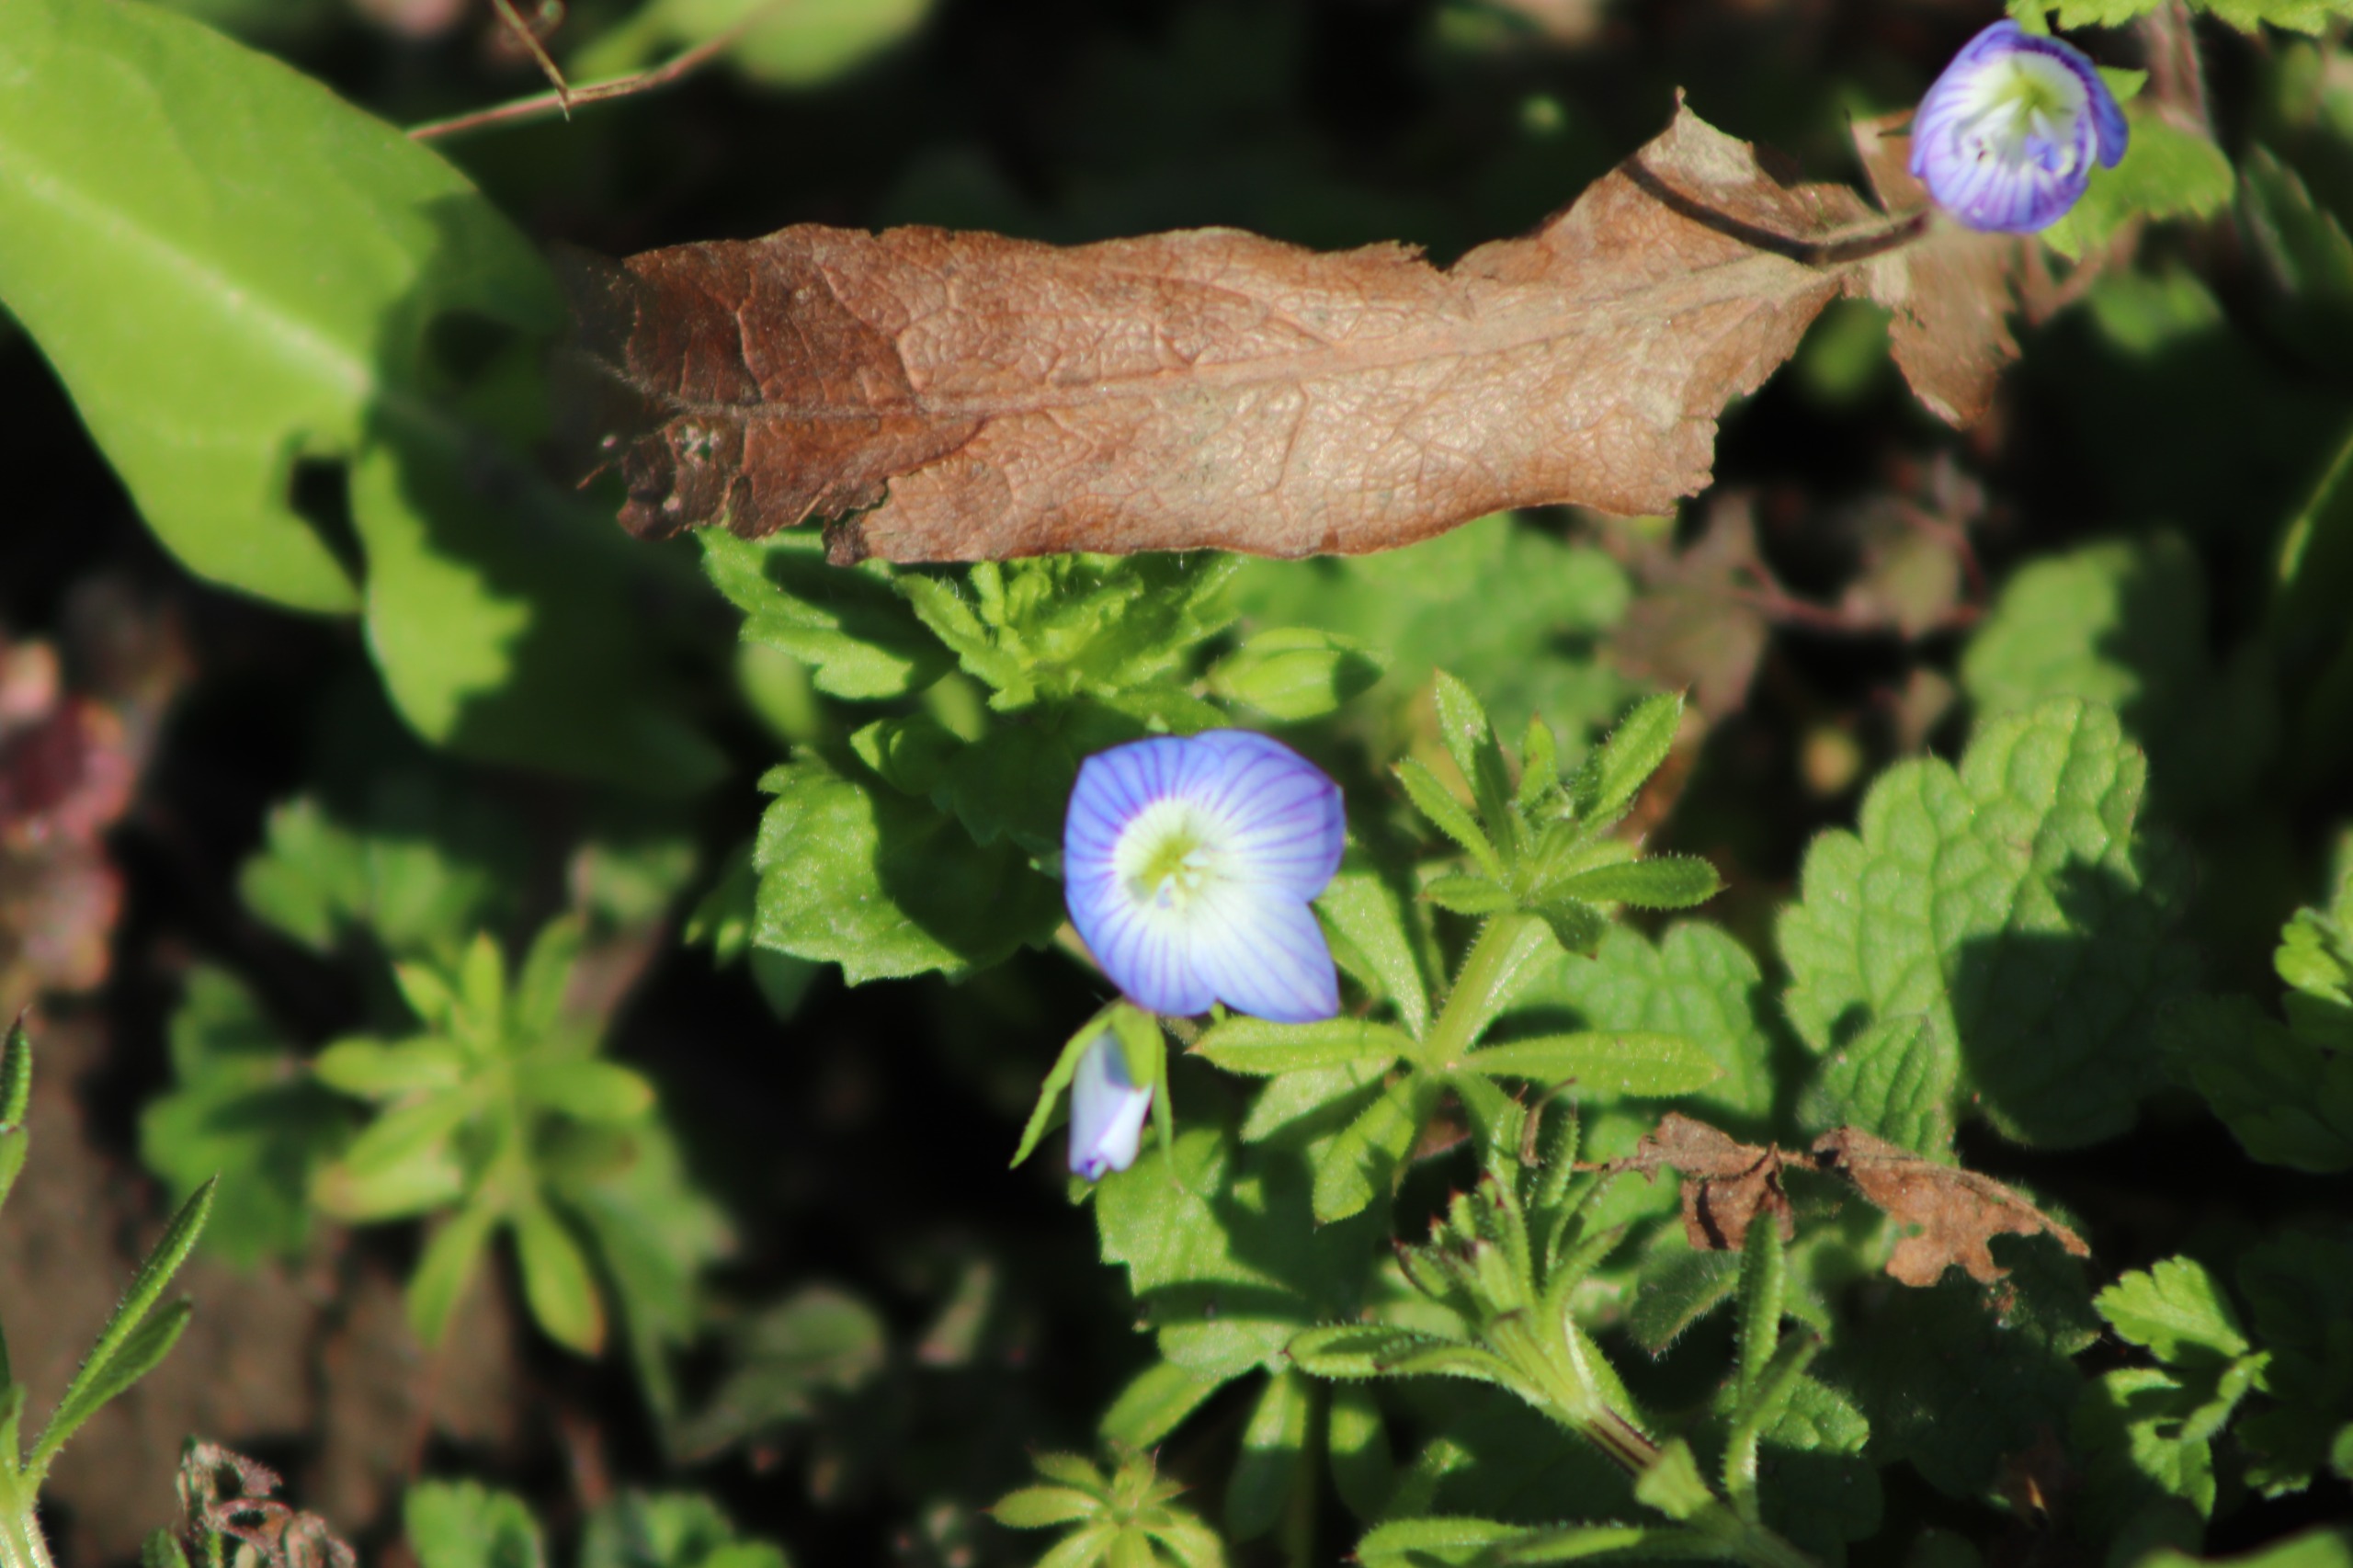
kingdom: Plantae
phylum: Tracheophyta
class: Magnoliopsida
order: Lamiales
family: Plantaginaceae
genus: Veronica
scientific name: Veronica persica
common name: Storkronet ærenpris
